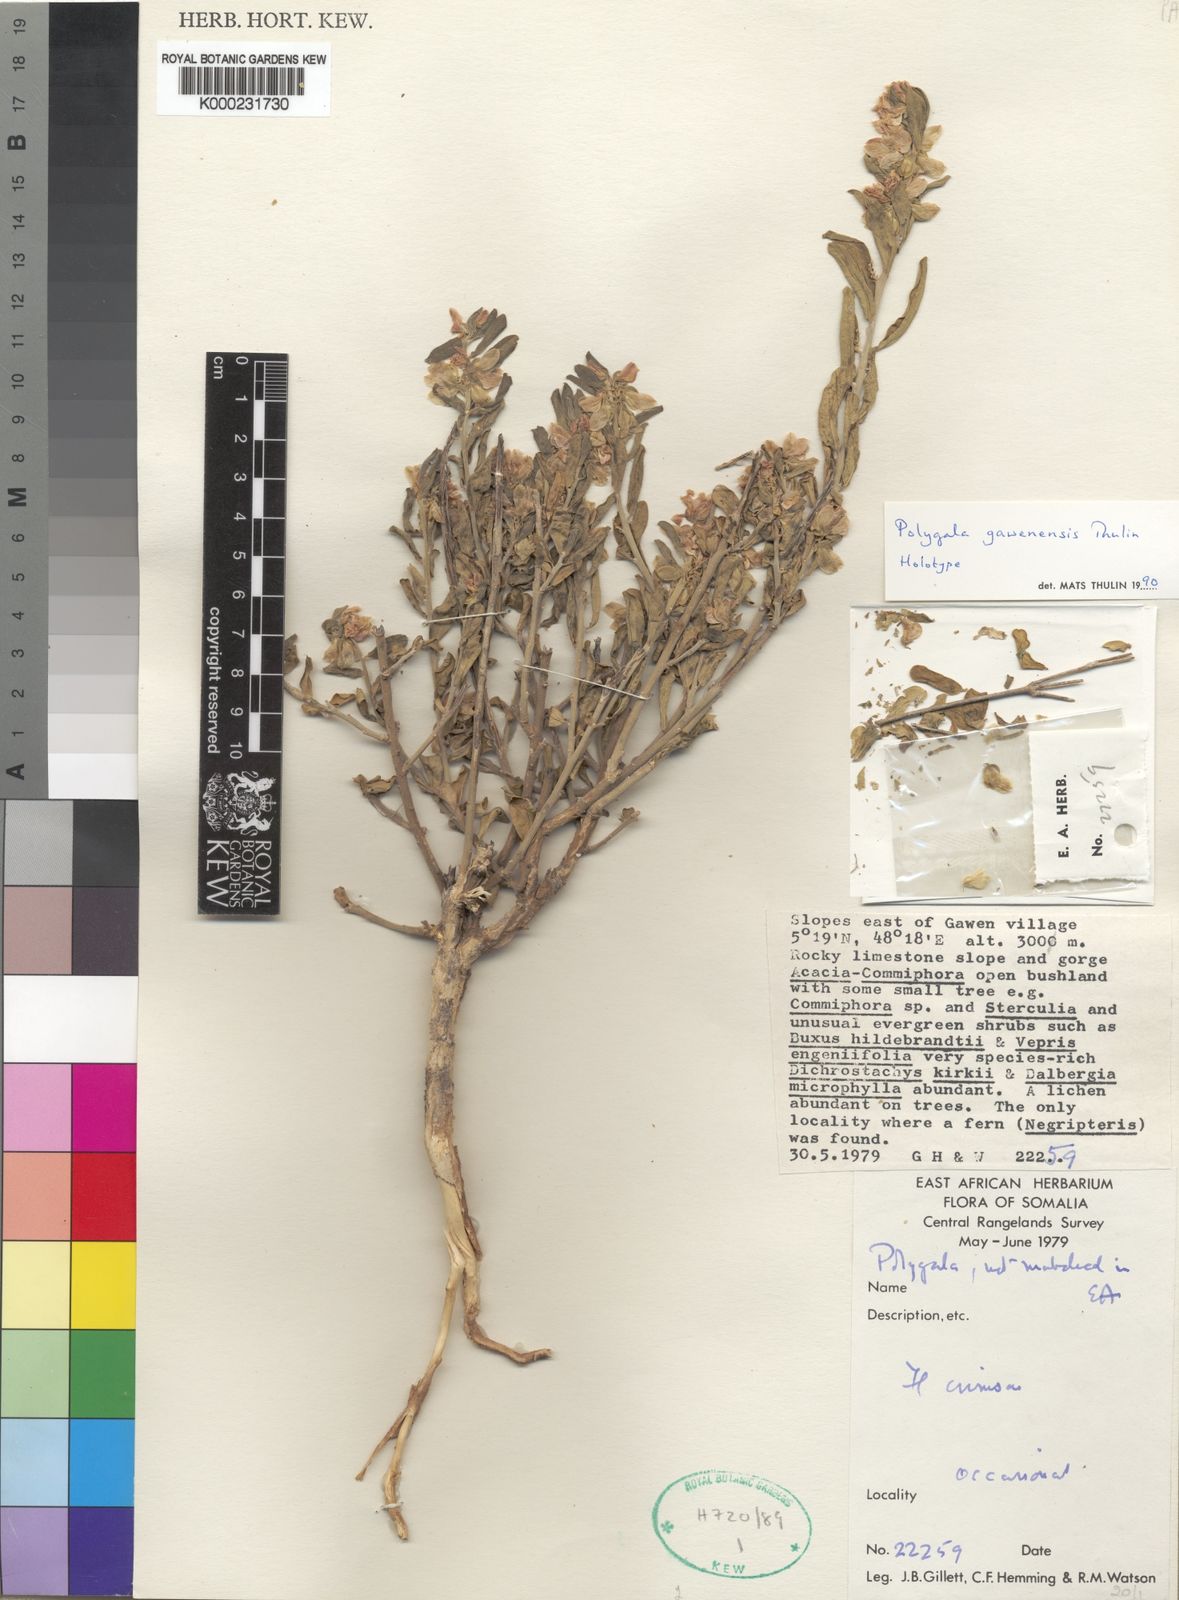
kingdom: Plantae
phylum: Tracheophyta
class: Magnoliopsida
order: Fabales
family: Polygalaceae
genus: Polygala
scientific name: Polygala
